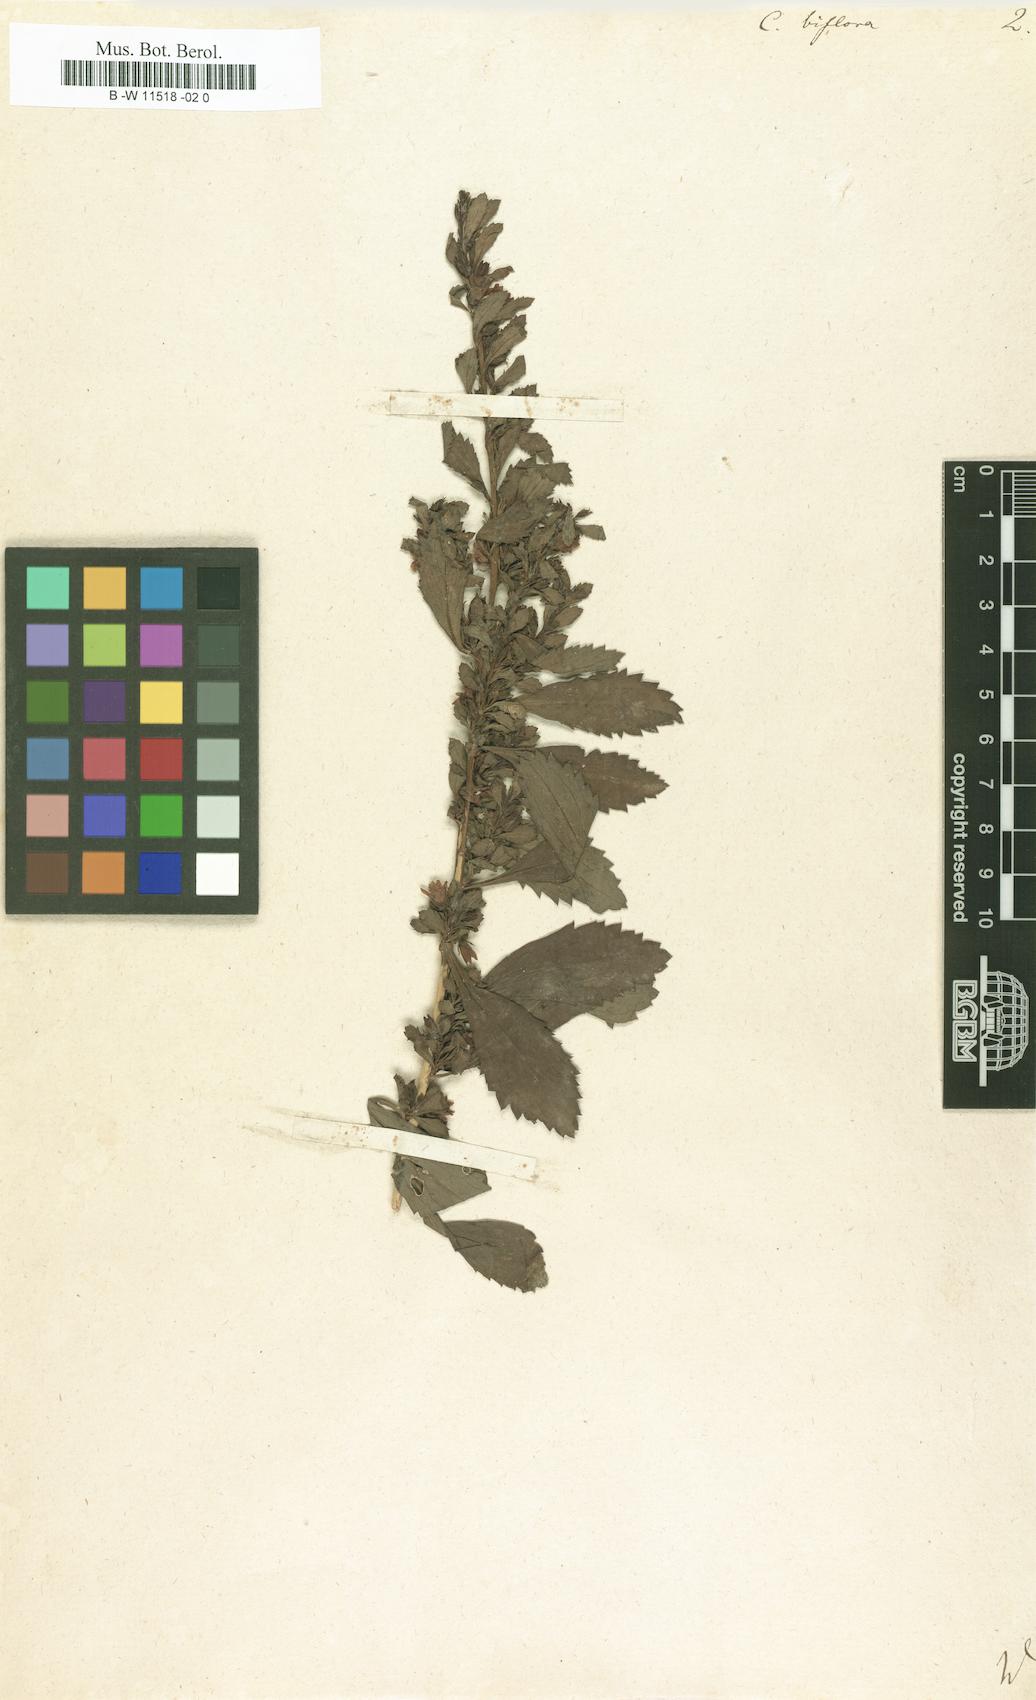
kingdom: Plantae
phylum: Tracheophyta
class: Magnoliopsida
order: Lamiales
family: Scrophulariaceae
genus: Capraria
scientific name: Capraria biflora
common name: Goatweed
